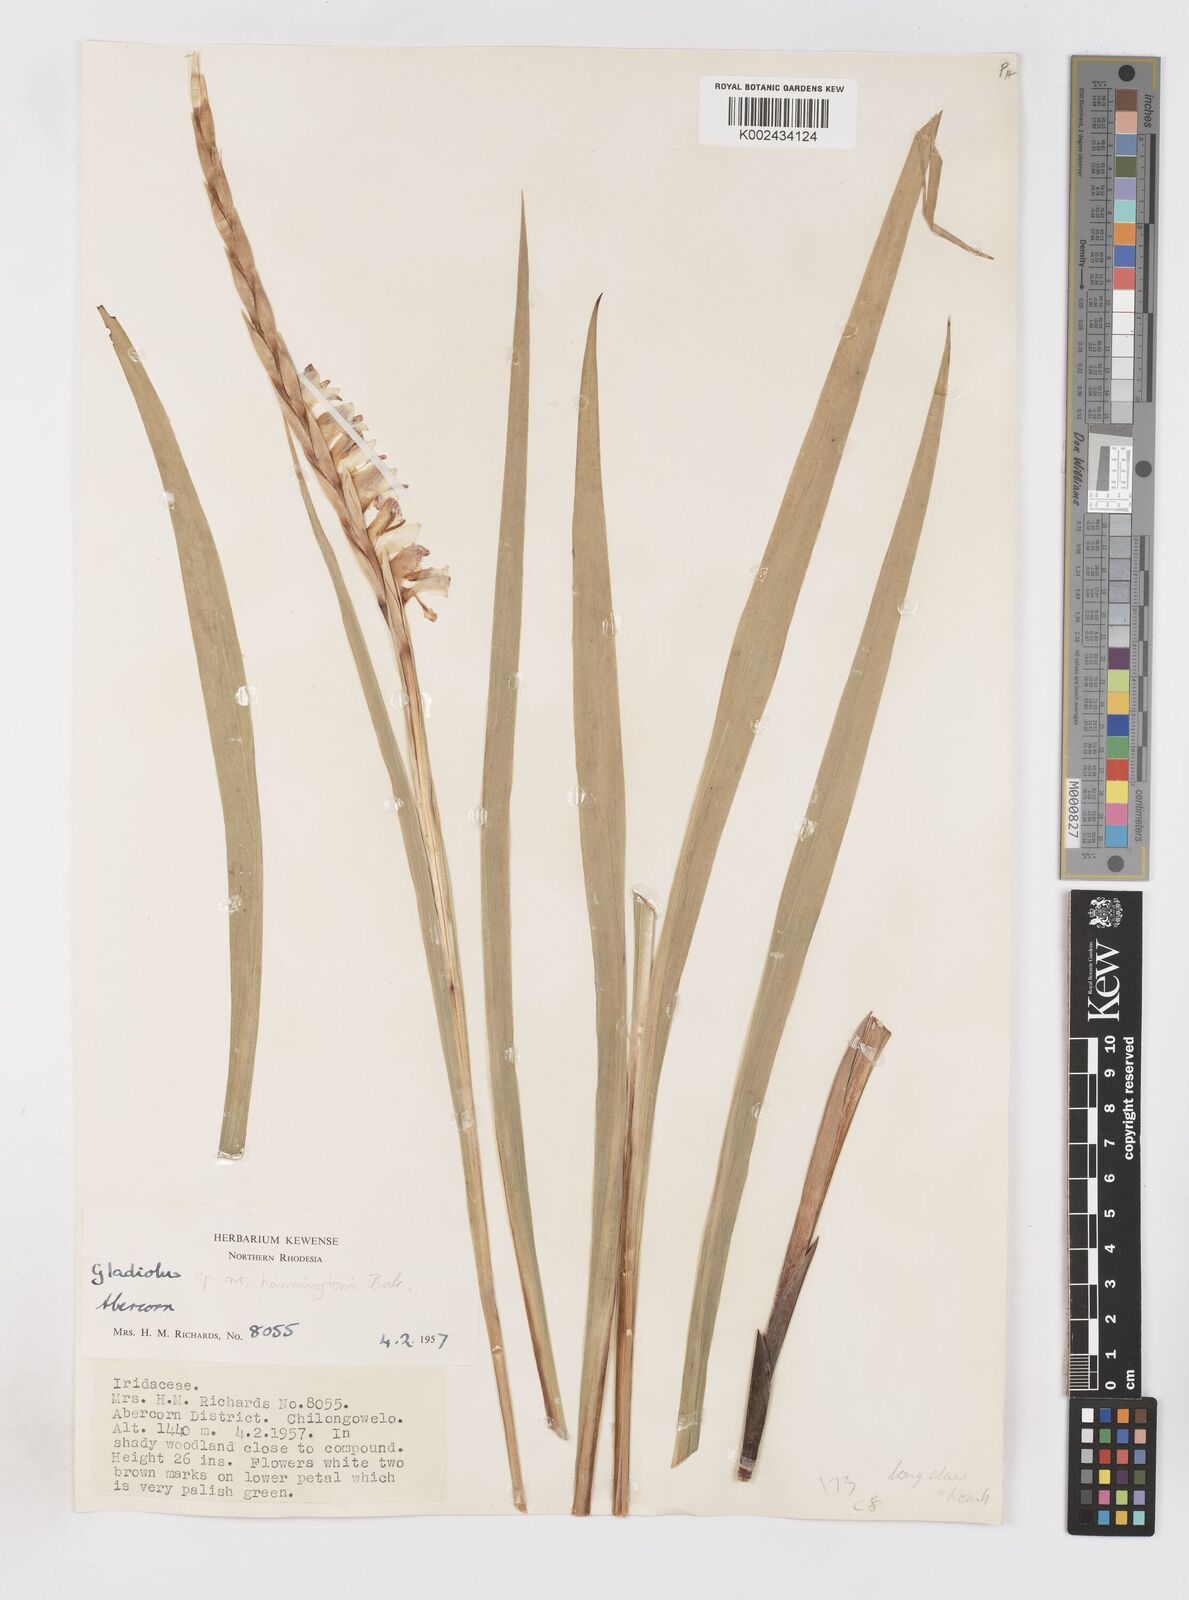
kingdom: Plantae
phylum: Tracheophyta
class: Liliopsida
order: Asparagales
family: Iridaceae
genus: Gladiolus
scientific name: Gladiolus gregarius
